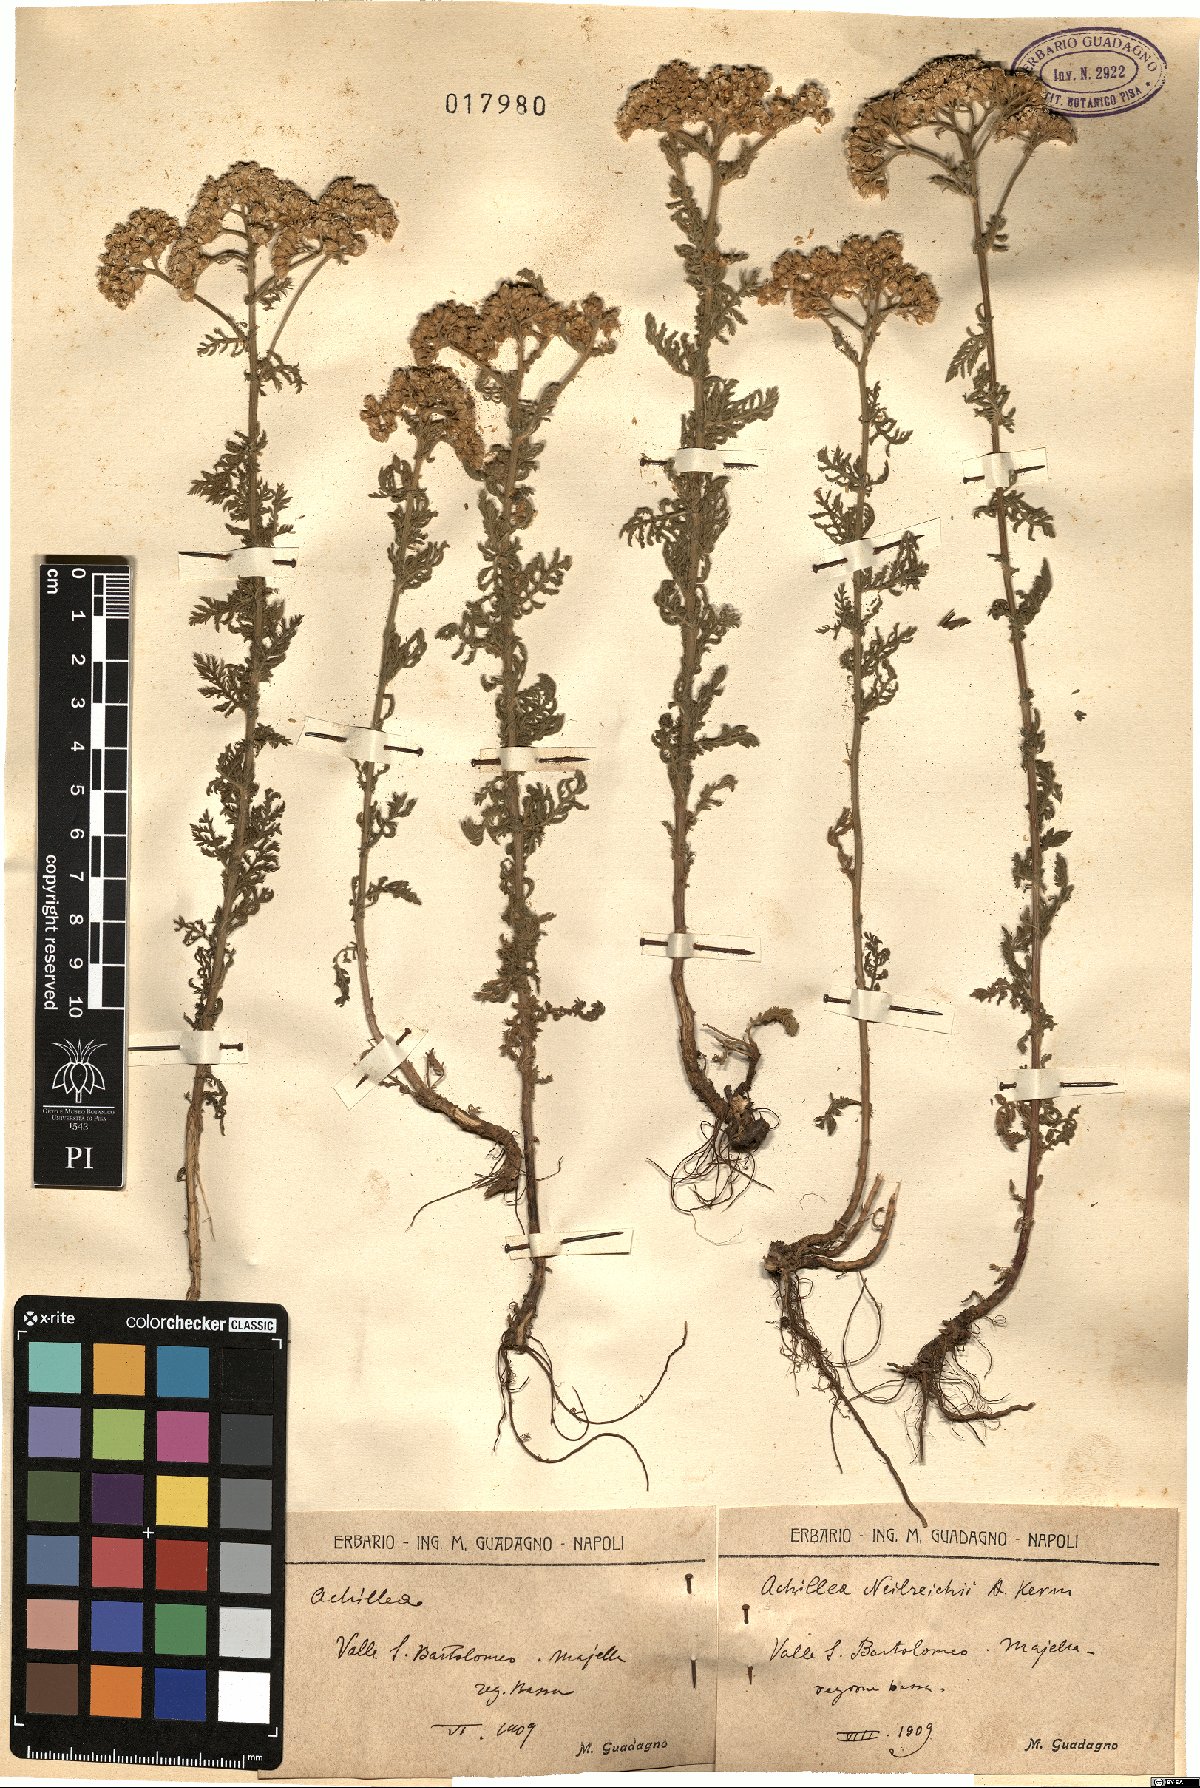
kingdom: Plantae
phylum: Tracheophyta
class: Magnoliopsida
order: Asterales
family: Asteraceae
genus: Achillea
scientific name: Achillea nobilis
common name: Noble yarrow
